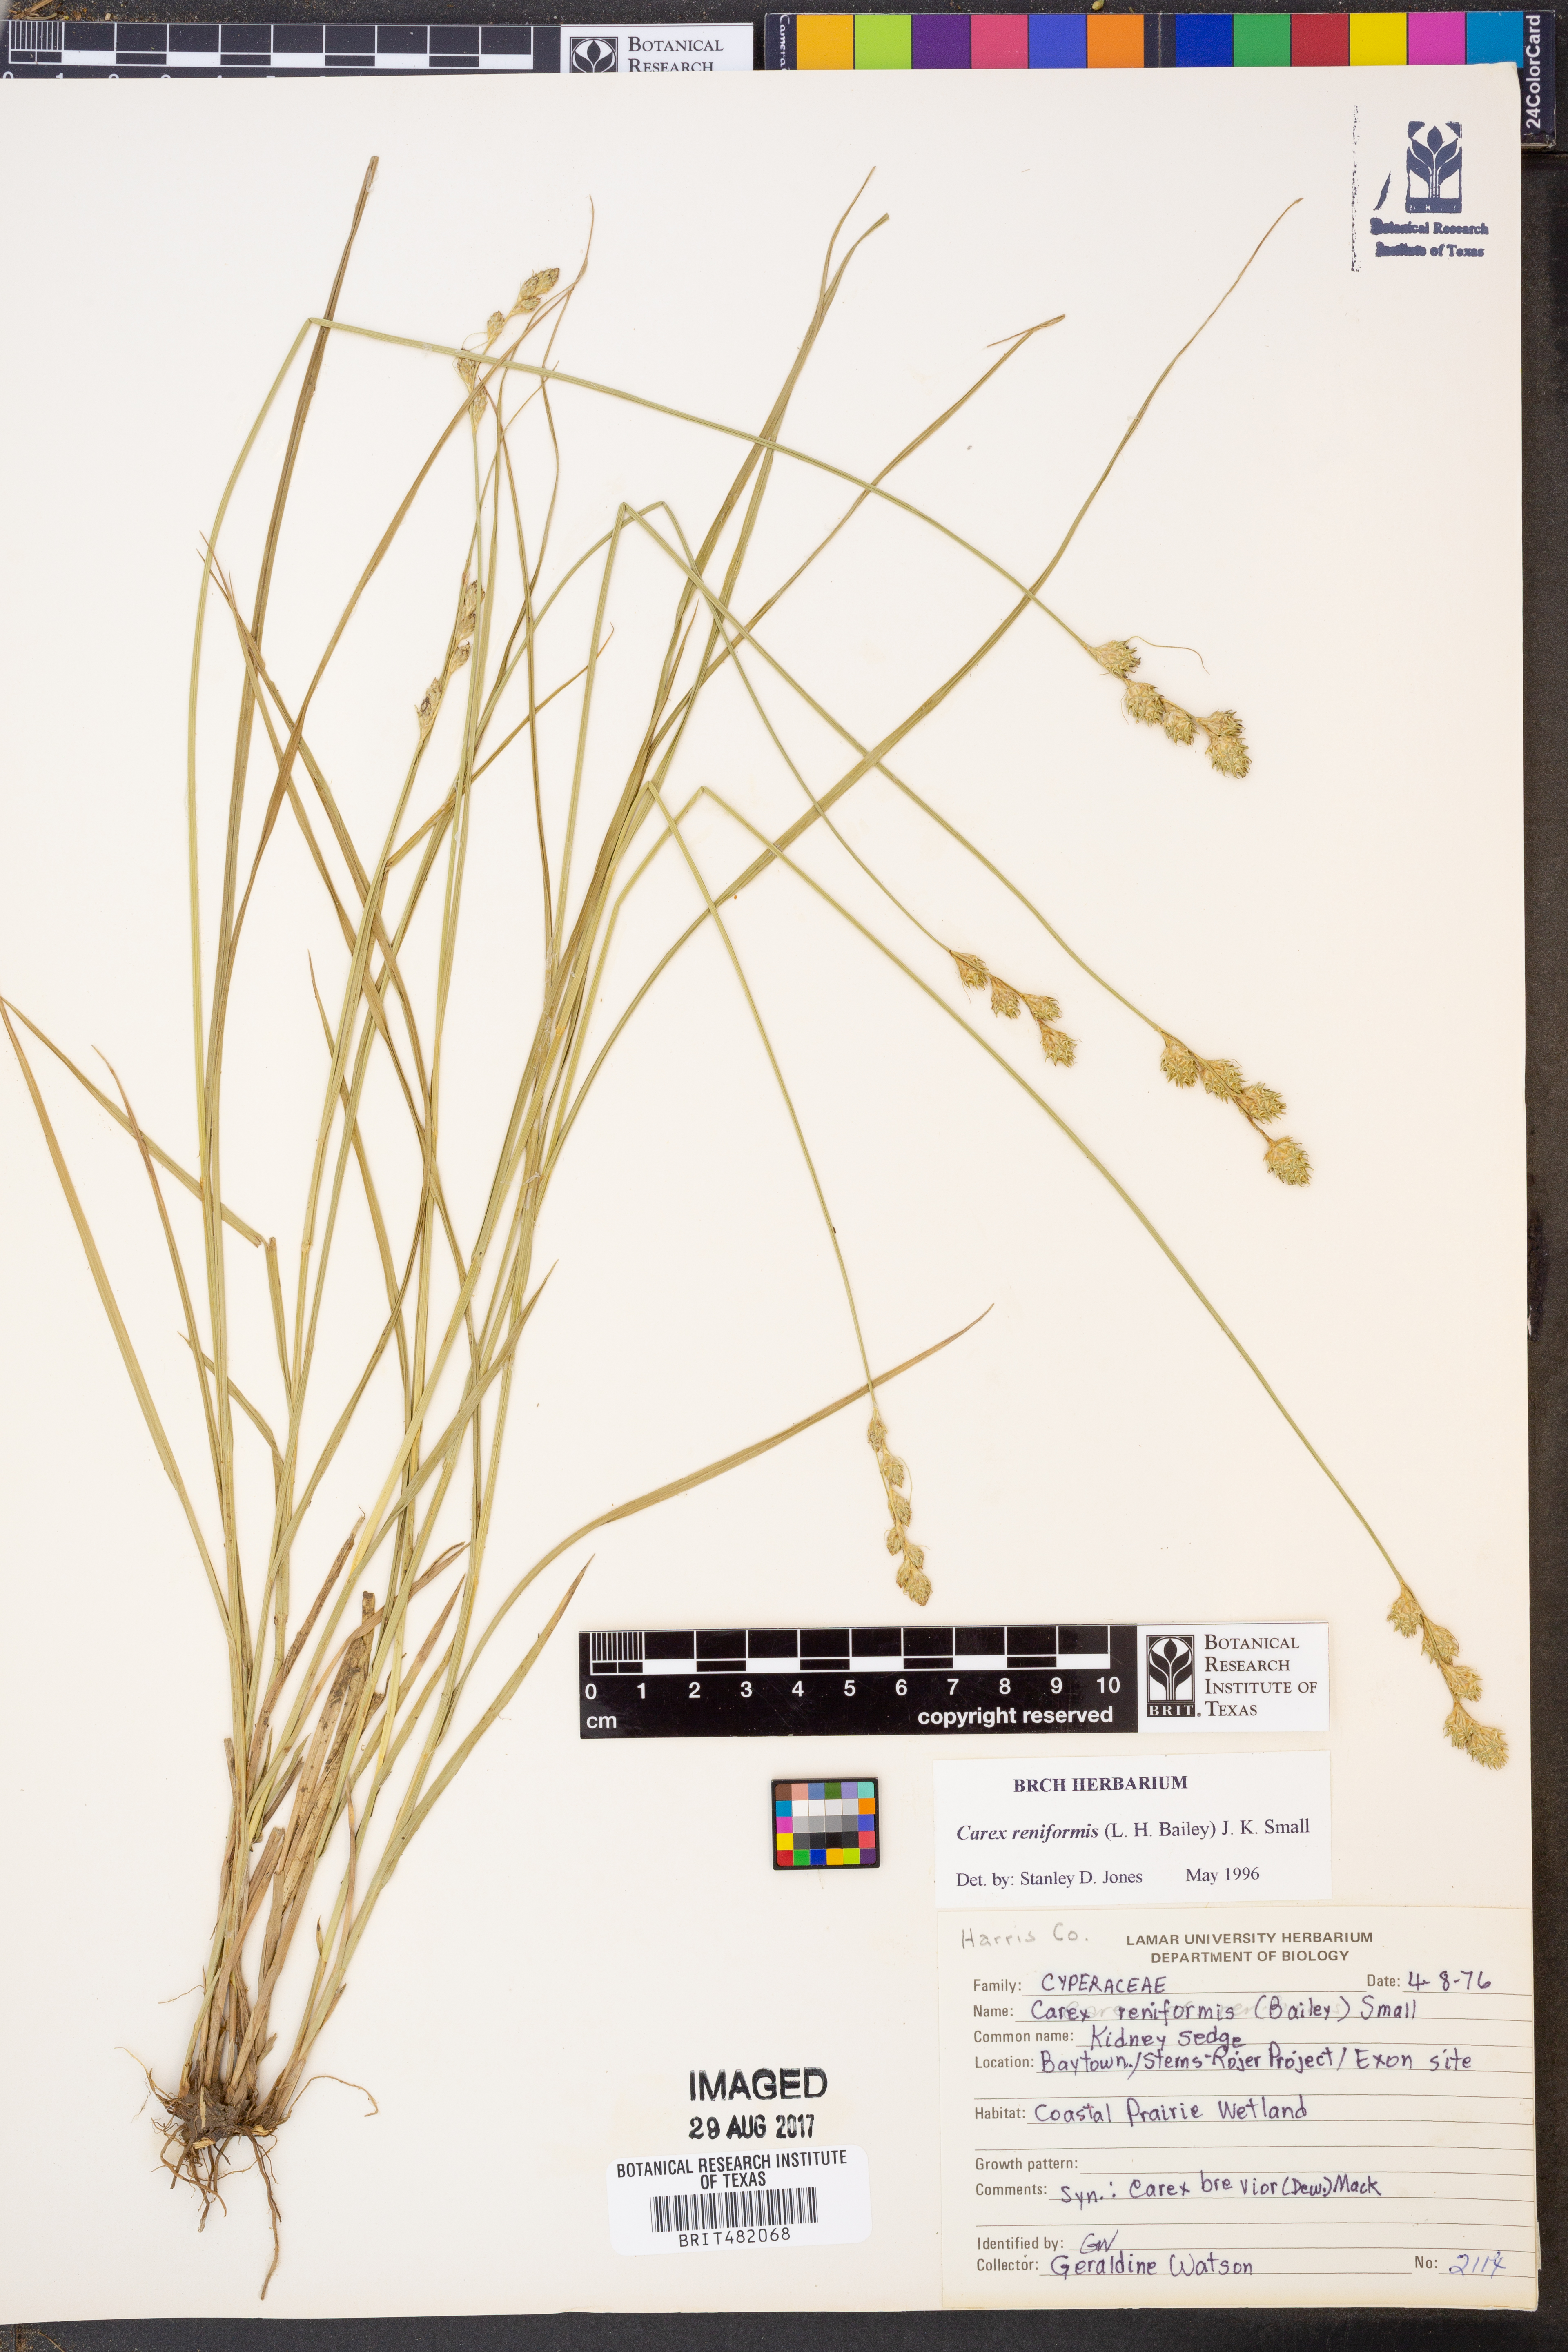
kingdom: Plantae
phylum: Tracheophyta
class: Liliopsida
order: Poales
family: Cyperaceae
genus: Carex
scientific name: Carex reniformis
